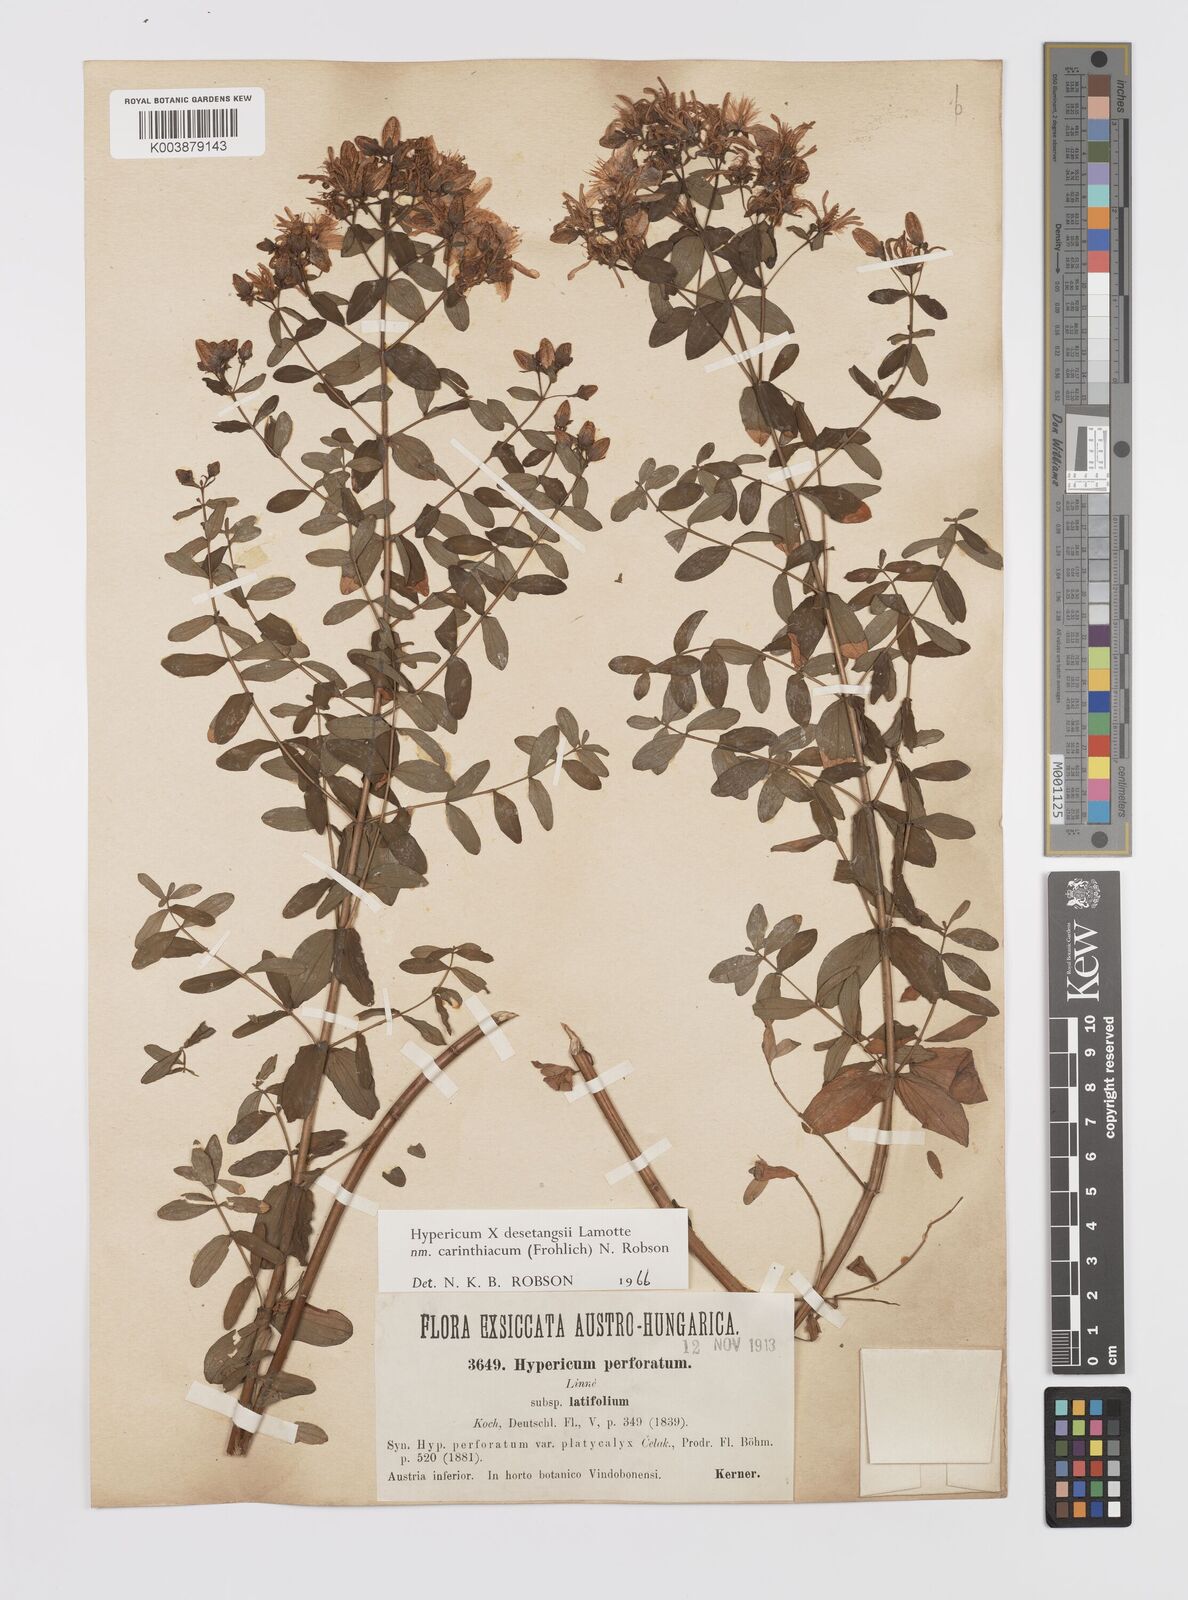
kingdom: Plantae
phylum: Tracheophyta
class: Magnoliopsida
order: Malpighiales
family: Hypericaceae
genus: Hypericum
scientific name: Hypericum maculatum
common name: Imperforate st. john's-wort
